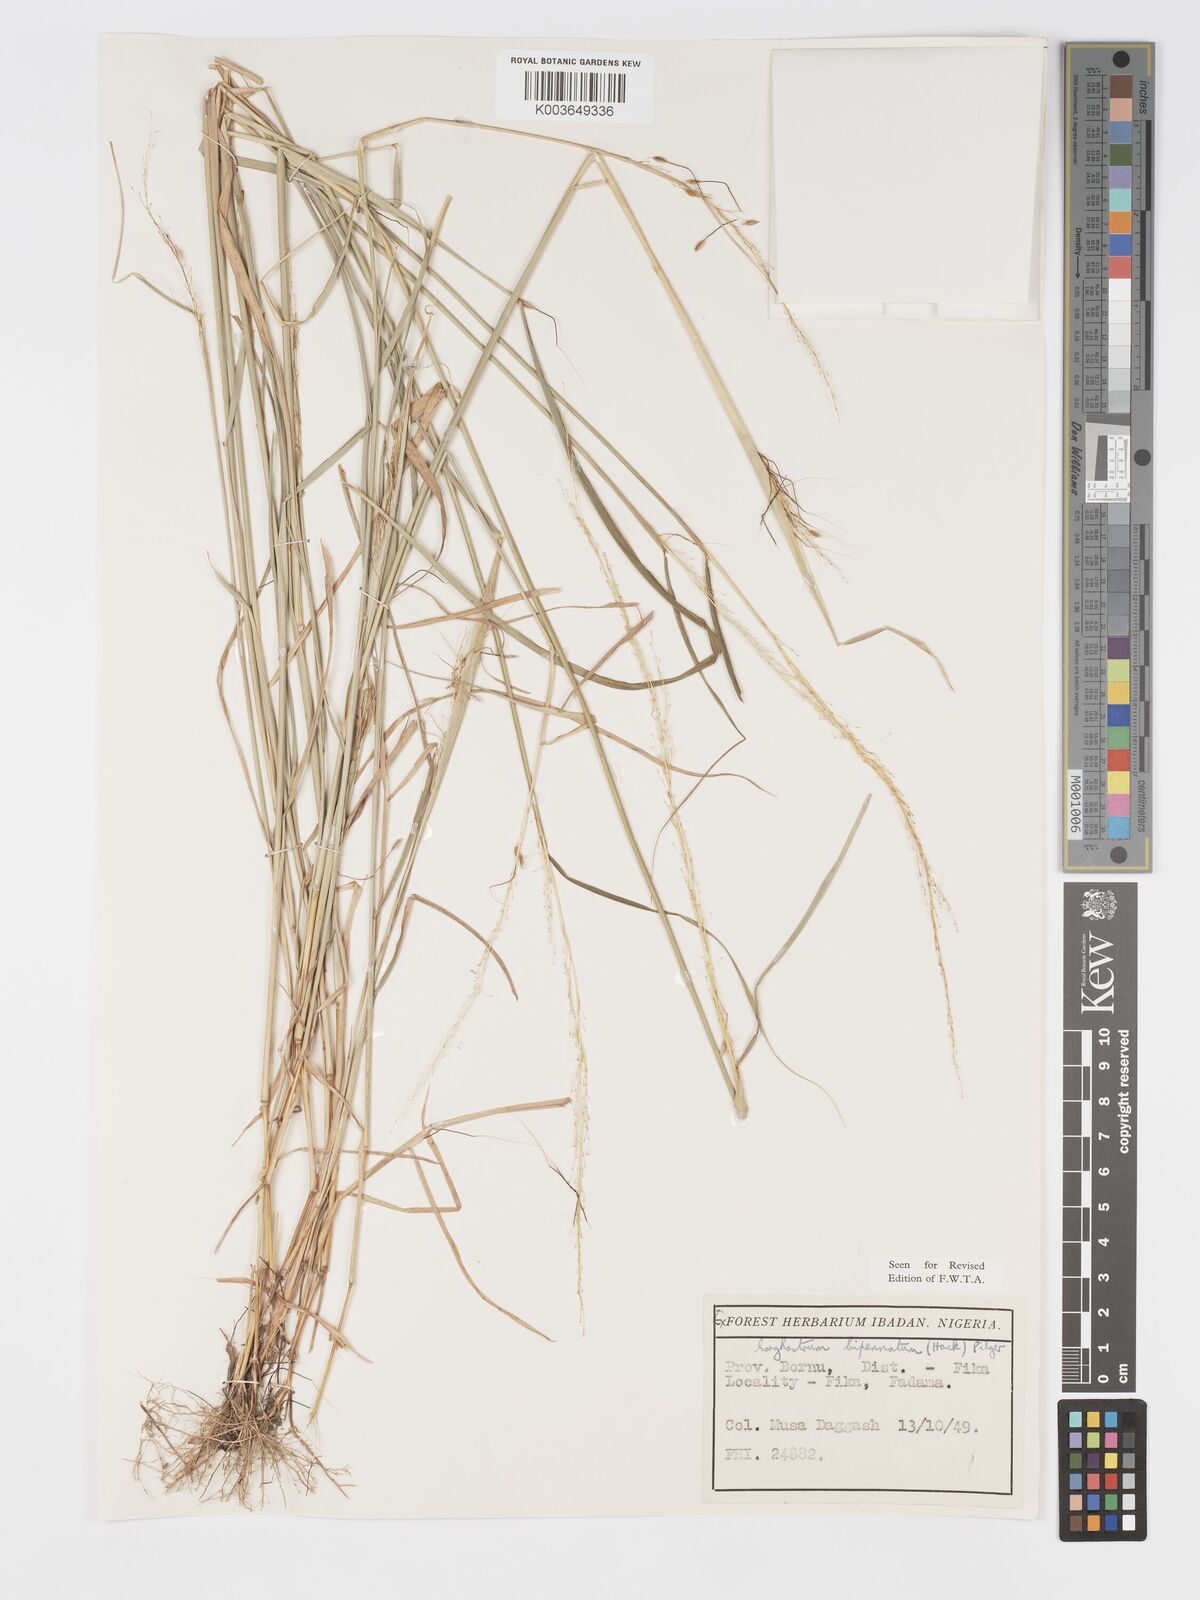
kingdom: Plantae
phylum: Tracheophyta
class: Liliopsida
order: Poales
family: Poaceae
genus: Sorghastrum
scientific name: Sorghastrum incompletum
